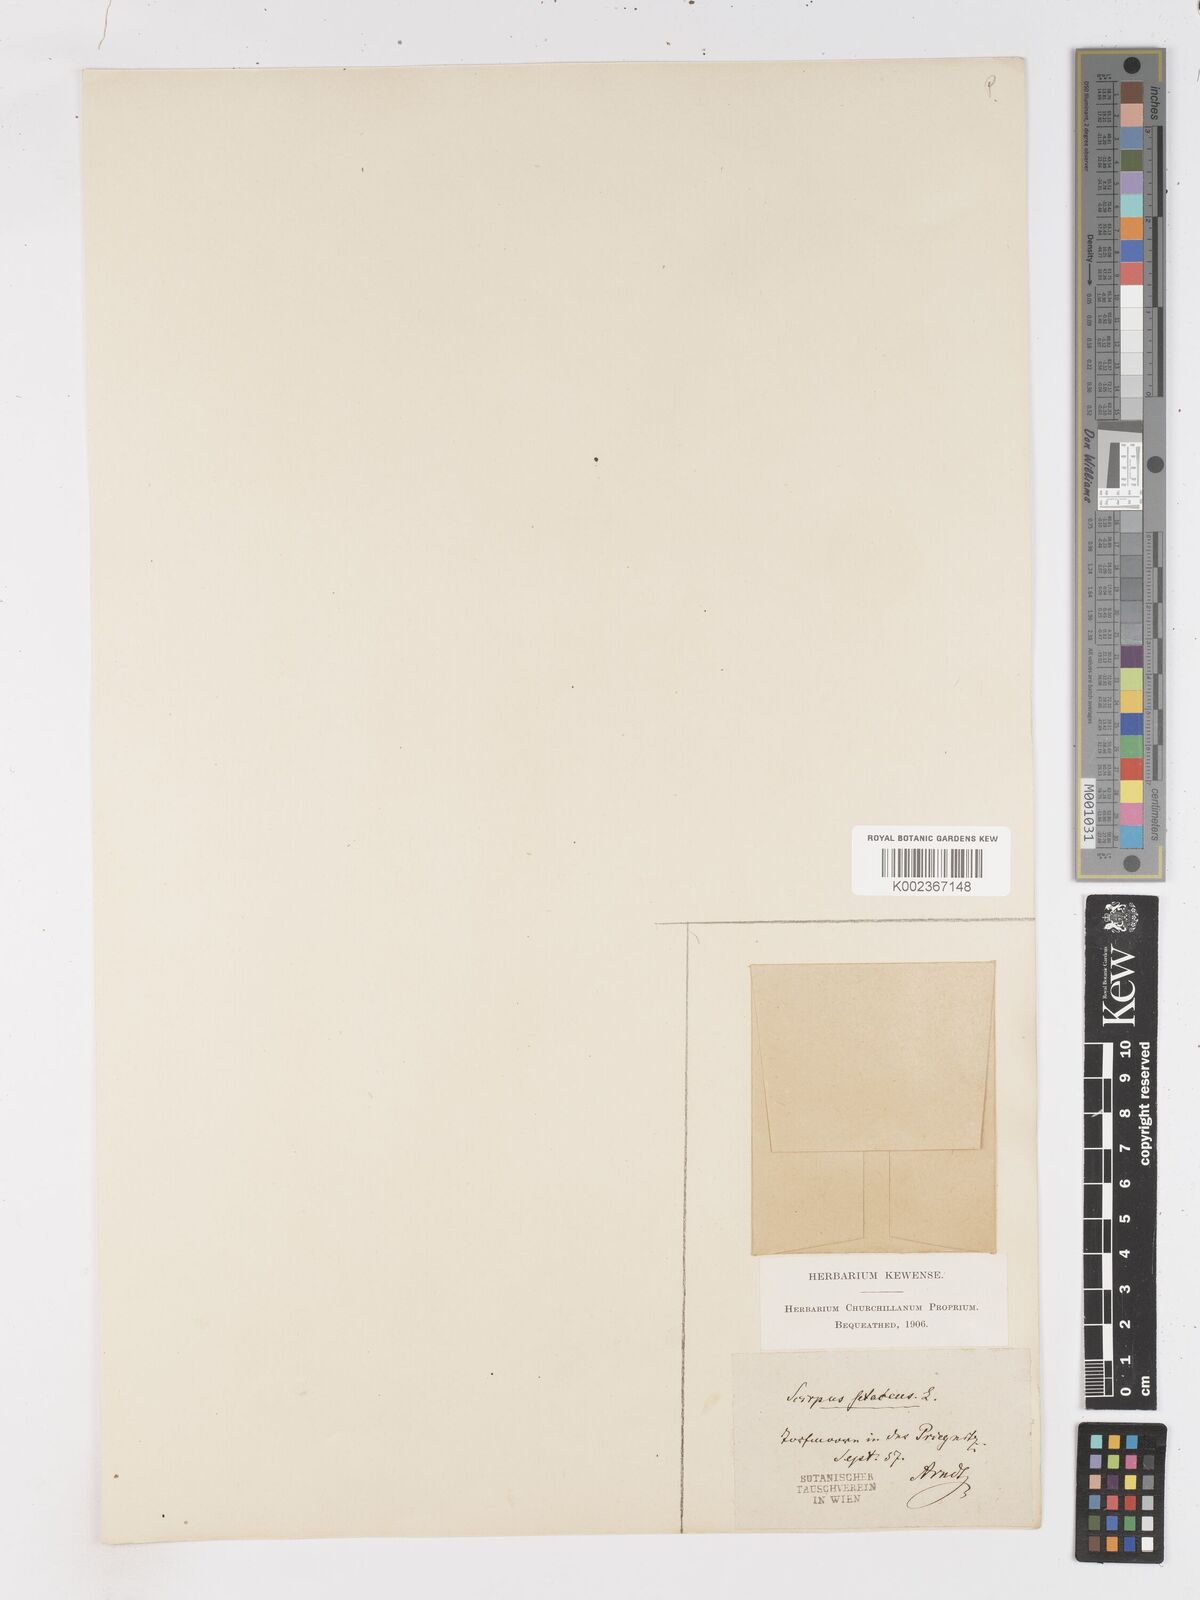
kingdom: Plantae
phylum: Tracheophyta
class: Liliopsida
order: Poales
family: Cyperaceae
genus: Isolepis
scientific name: Isolepis setacea
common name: Bristle club-rush
